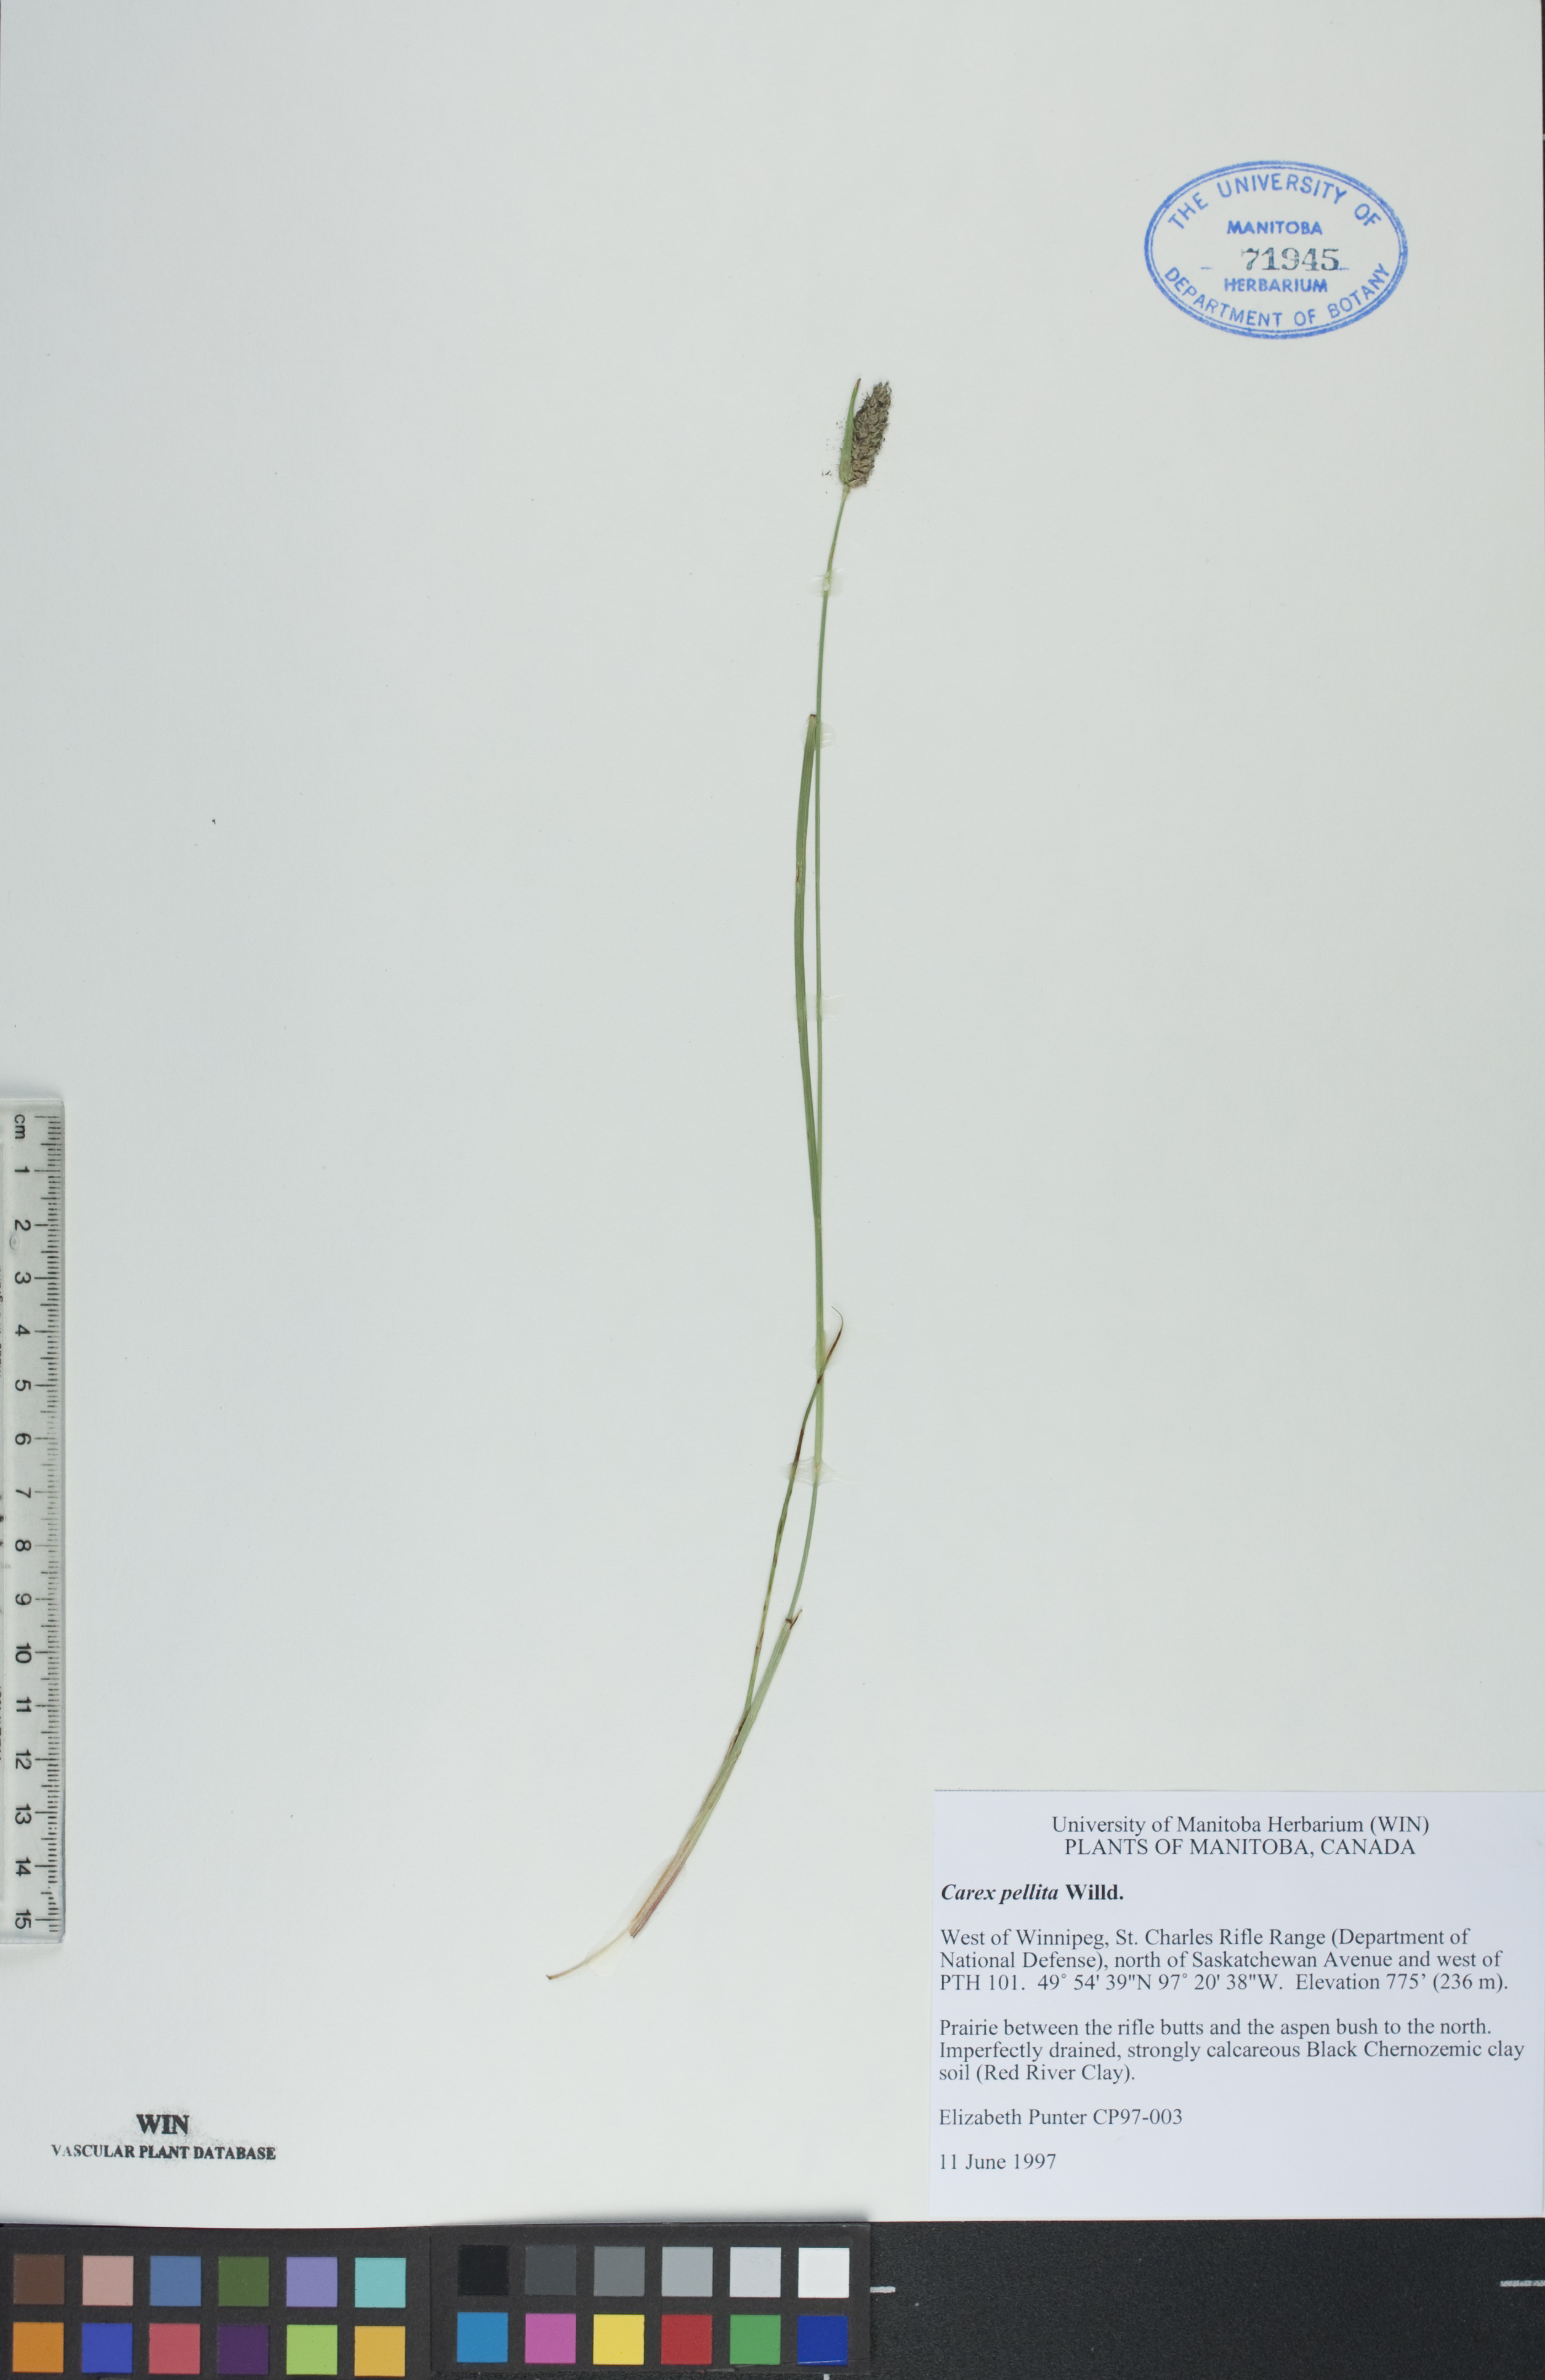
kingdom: Plantae
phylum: Tracheophyta
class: Liliopsida
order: Poales
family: Cyperaceae
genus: Carex
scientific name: Carex pellita
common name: Woolly sedge
